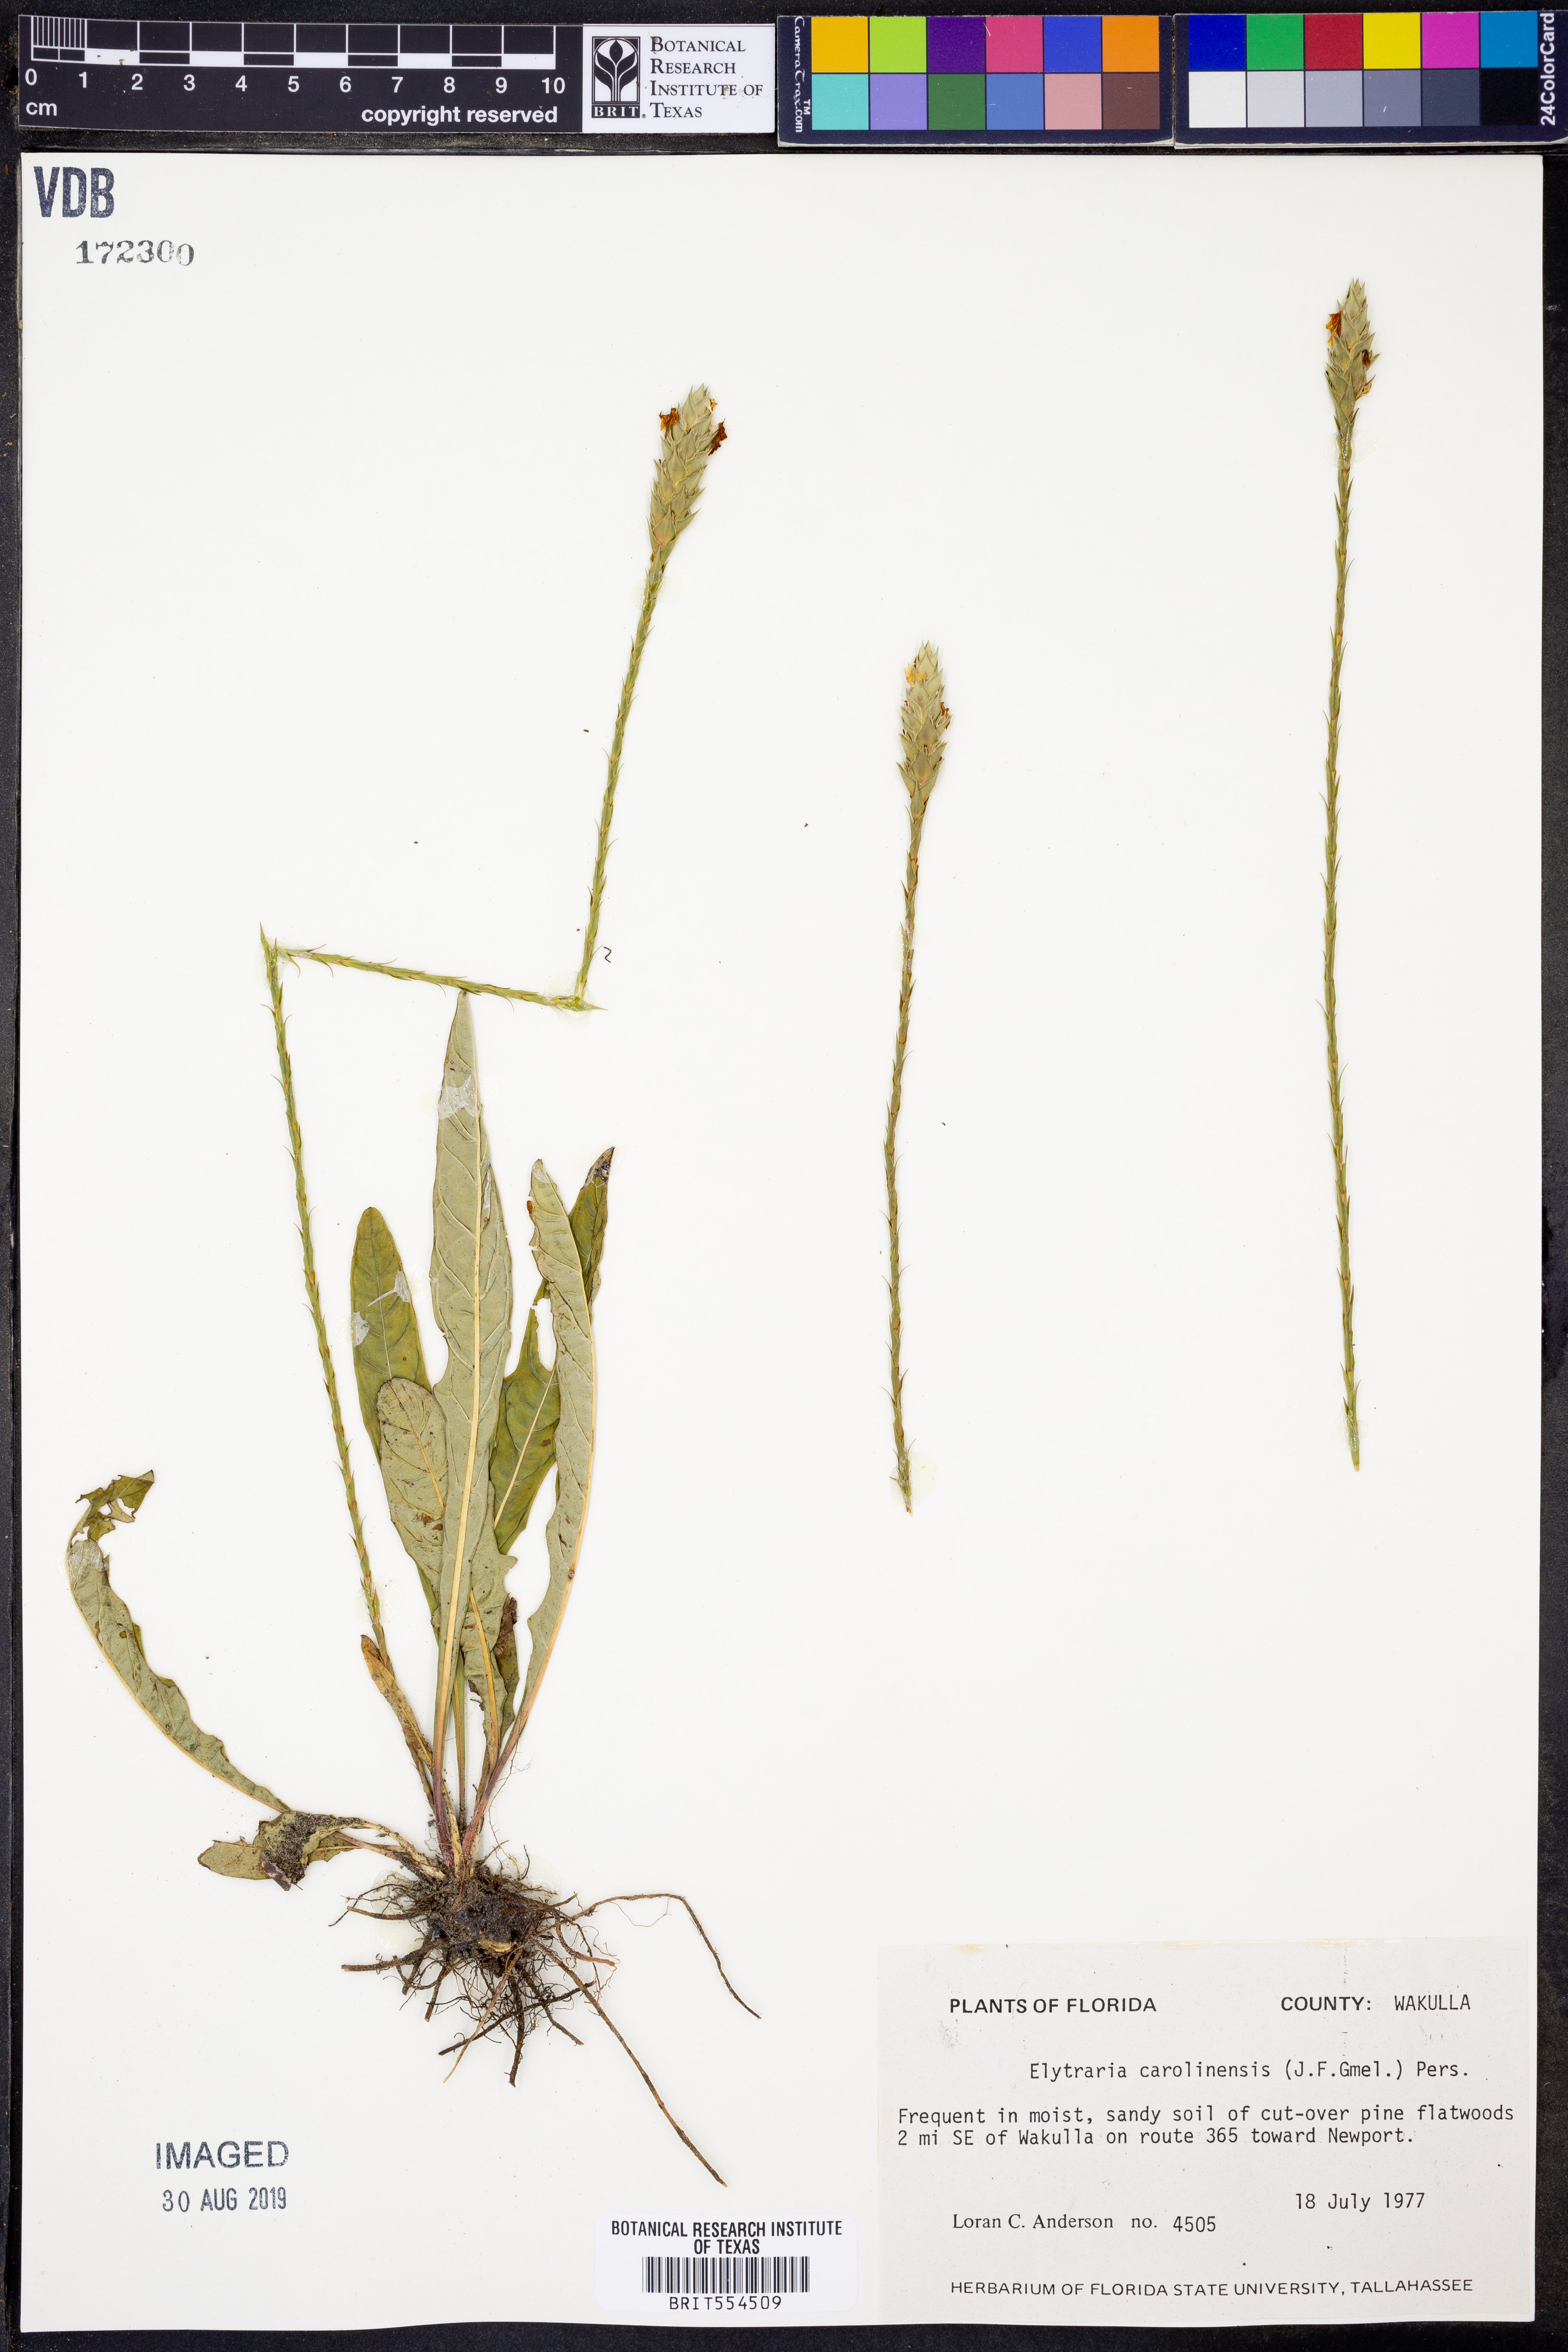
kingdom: Plantae
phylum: Tracheophyta
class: Magnoliopsida
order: Lamiales
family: Acanthaceae
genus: Elytraria
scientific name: Elytraria caroliniensis
